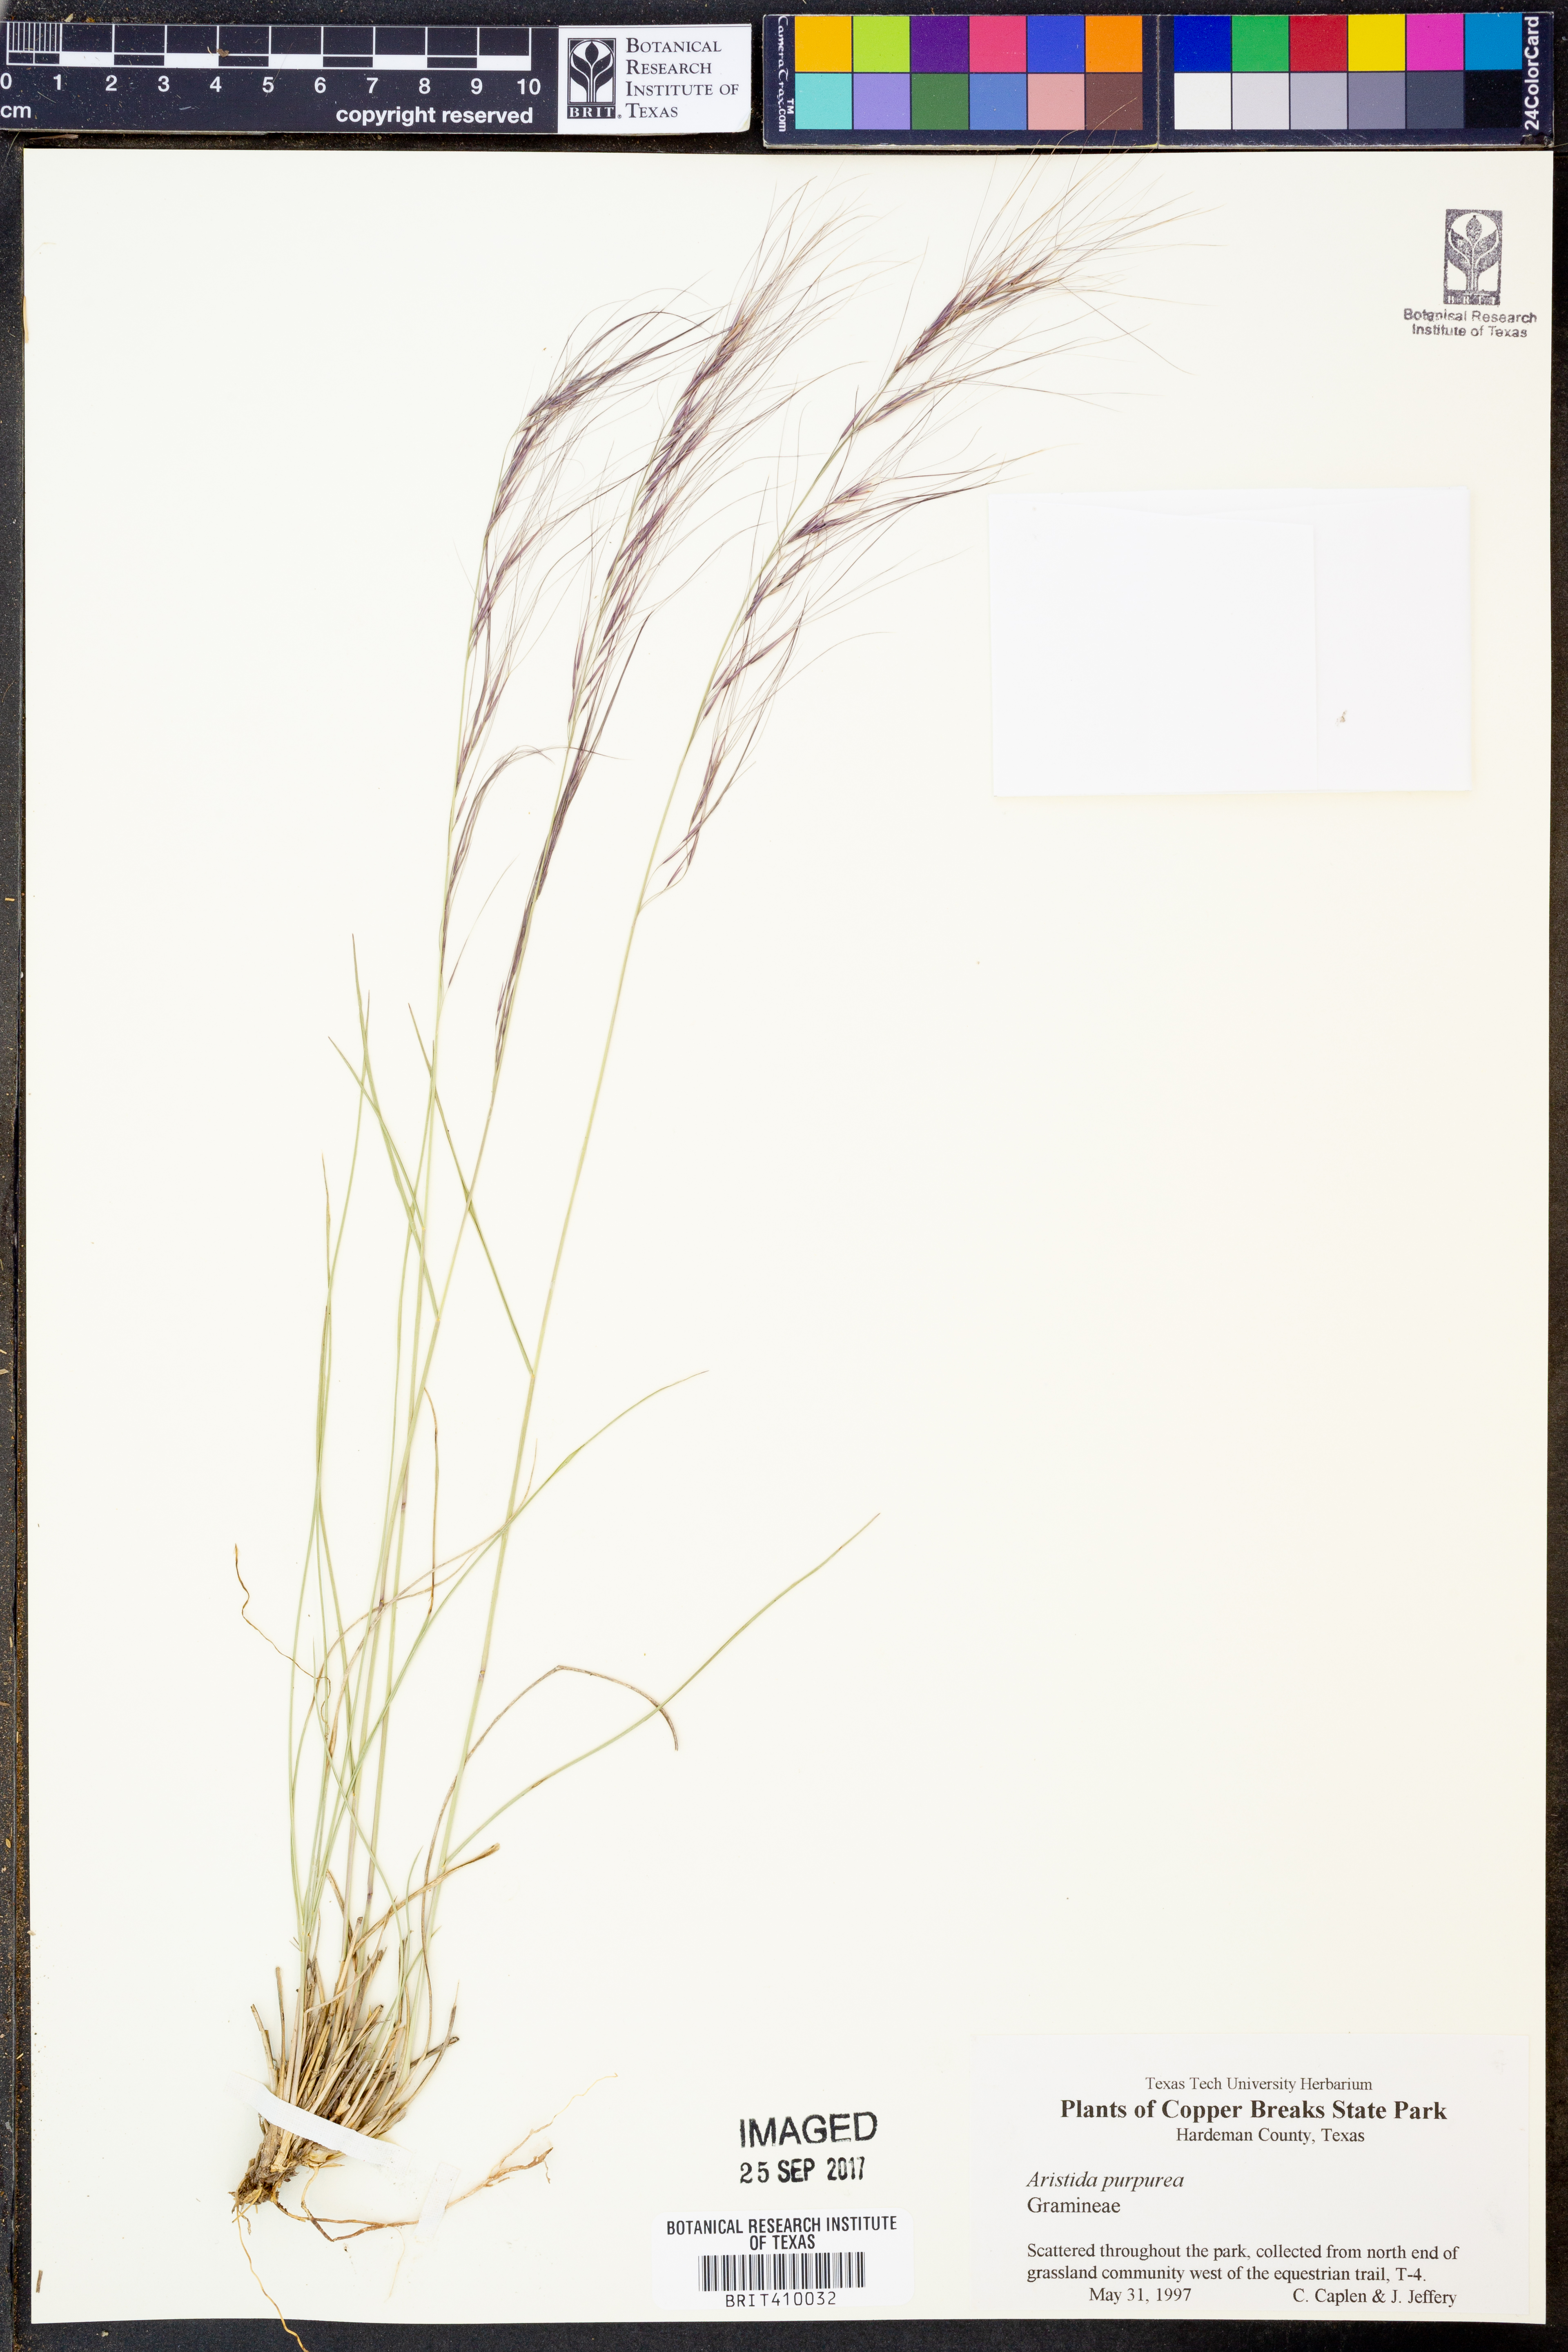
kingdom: Plantae
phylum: Tracheophyta
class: Liliopsida
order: Poales
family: Poaceae
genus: Aristida
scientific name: Aristida purpurea
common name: Purple threeawn
